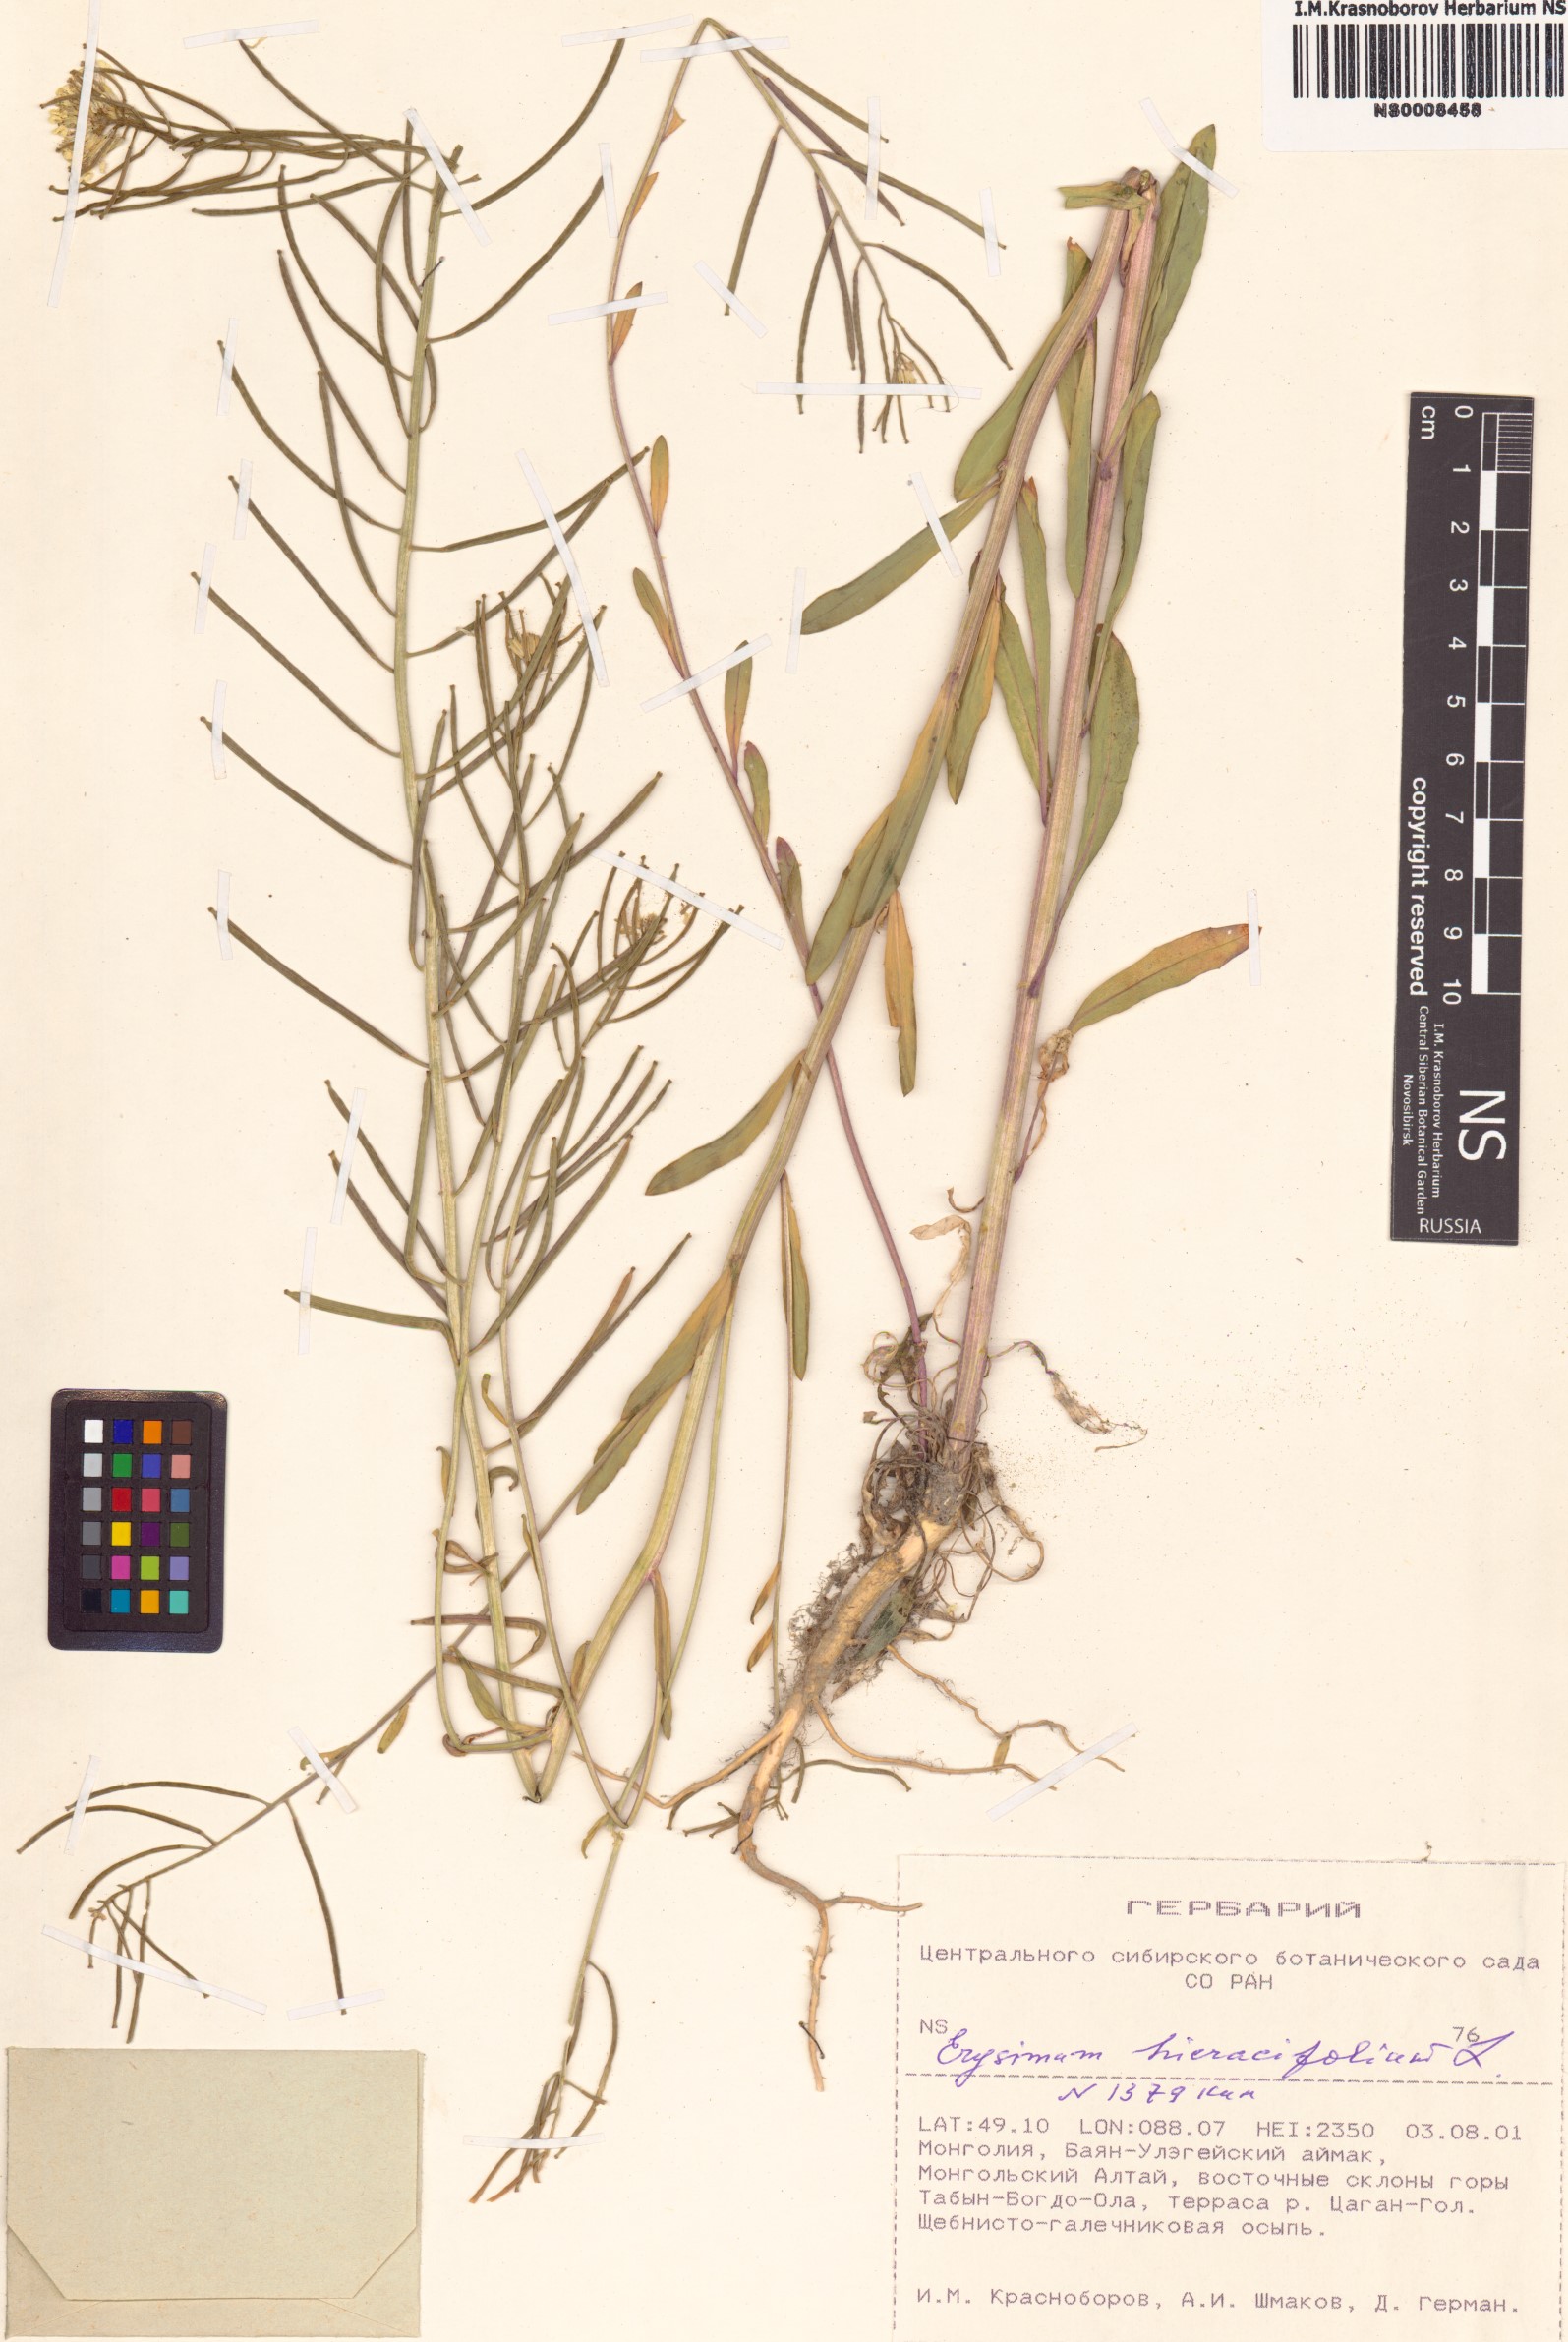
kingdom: Plantae
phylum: Tracheophyta
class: Magnoliopsida
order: Brassicales
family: Brassicaceae
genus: Erysimum
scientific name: Erysimum hieraciifolium
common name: European wallflower
